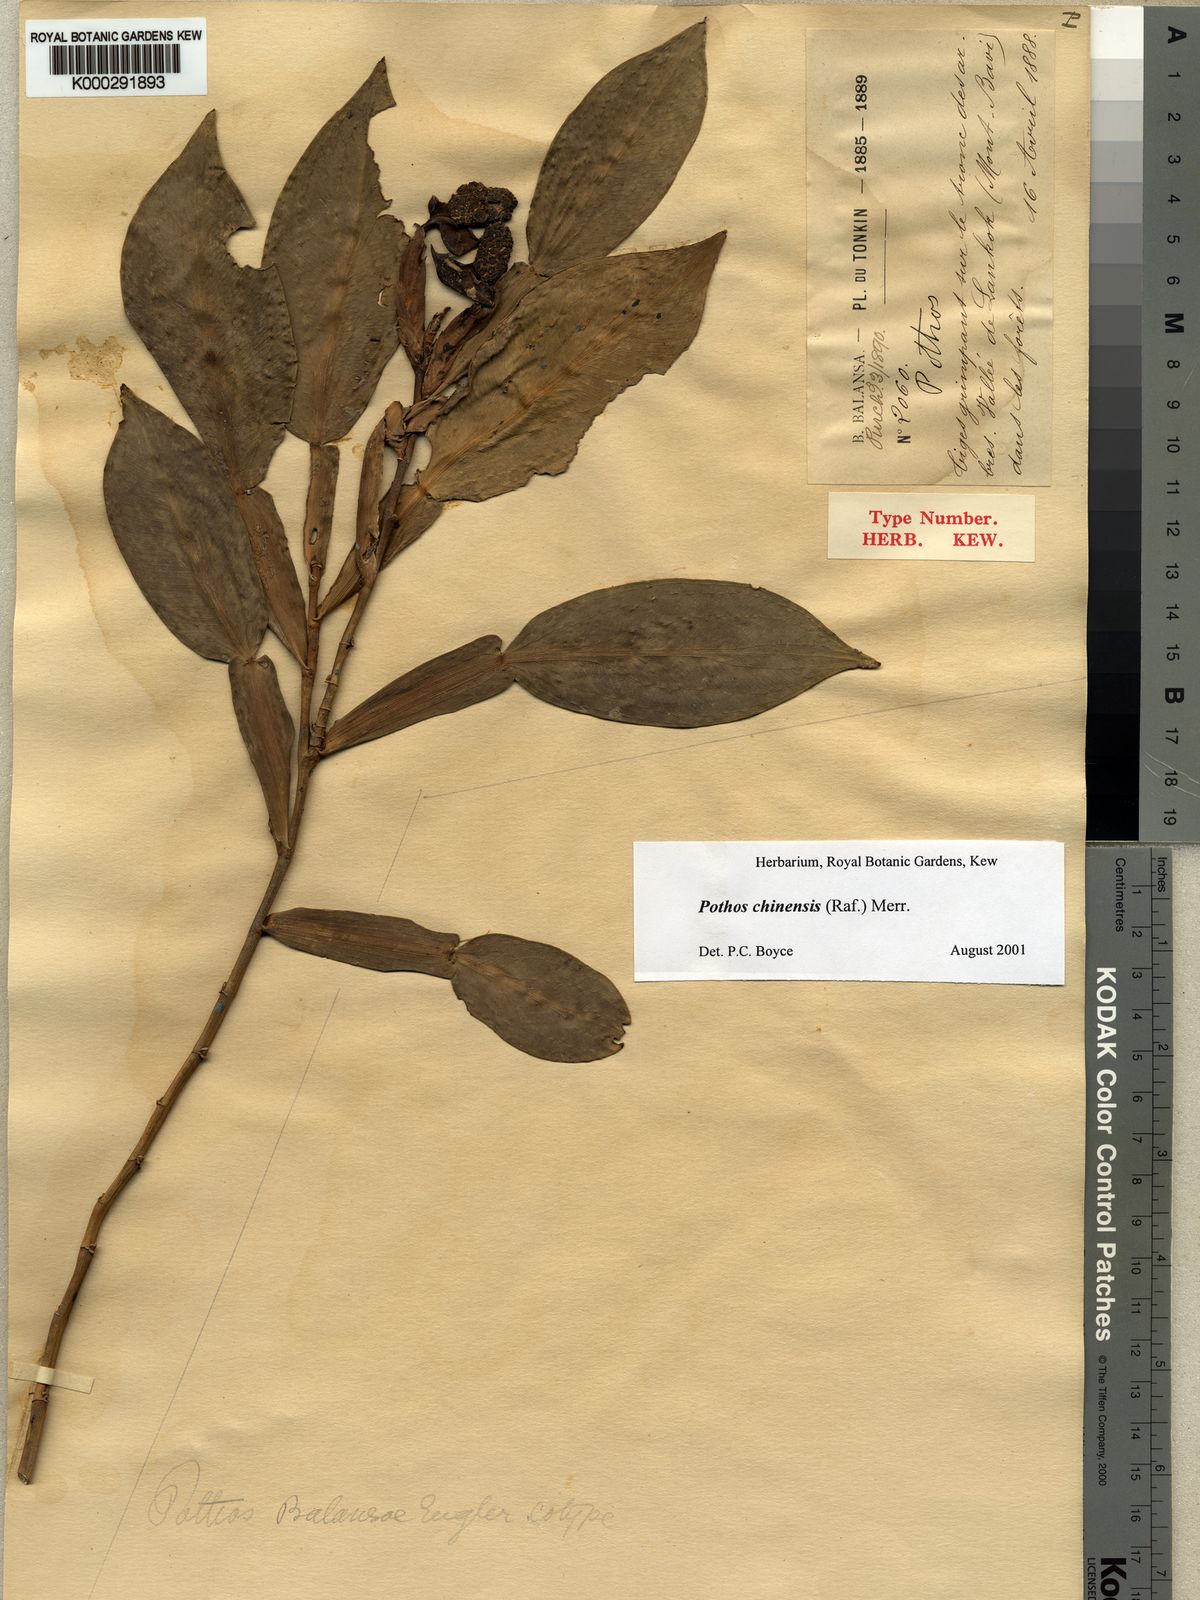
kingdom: Plantae
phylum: Tracheophyta
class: Liliopsida
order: Alismatales
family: Araceae
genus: Pothos
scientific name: Pothos chinensis
